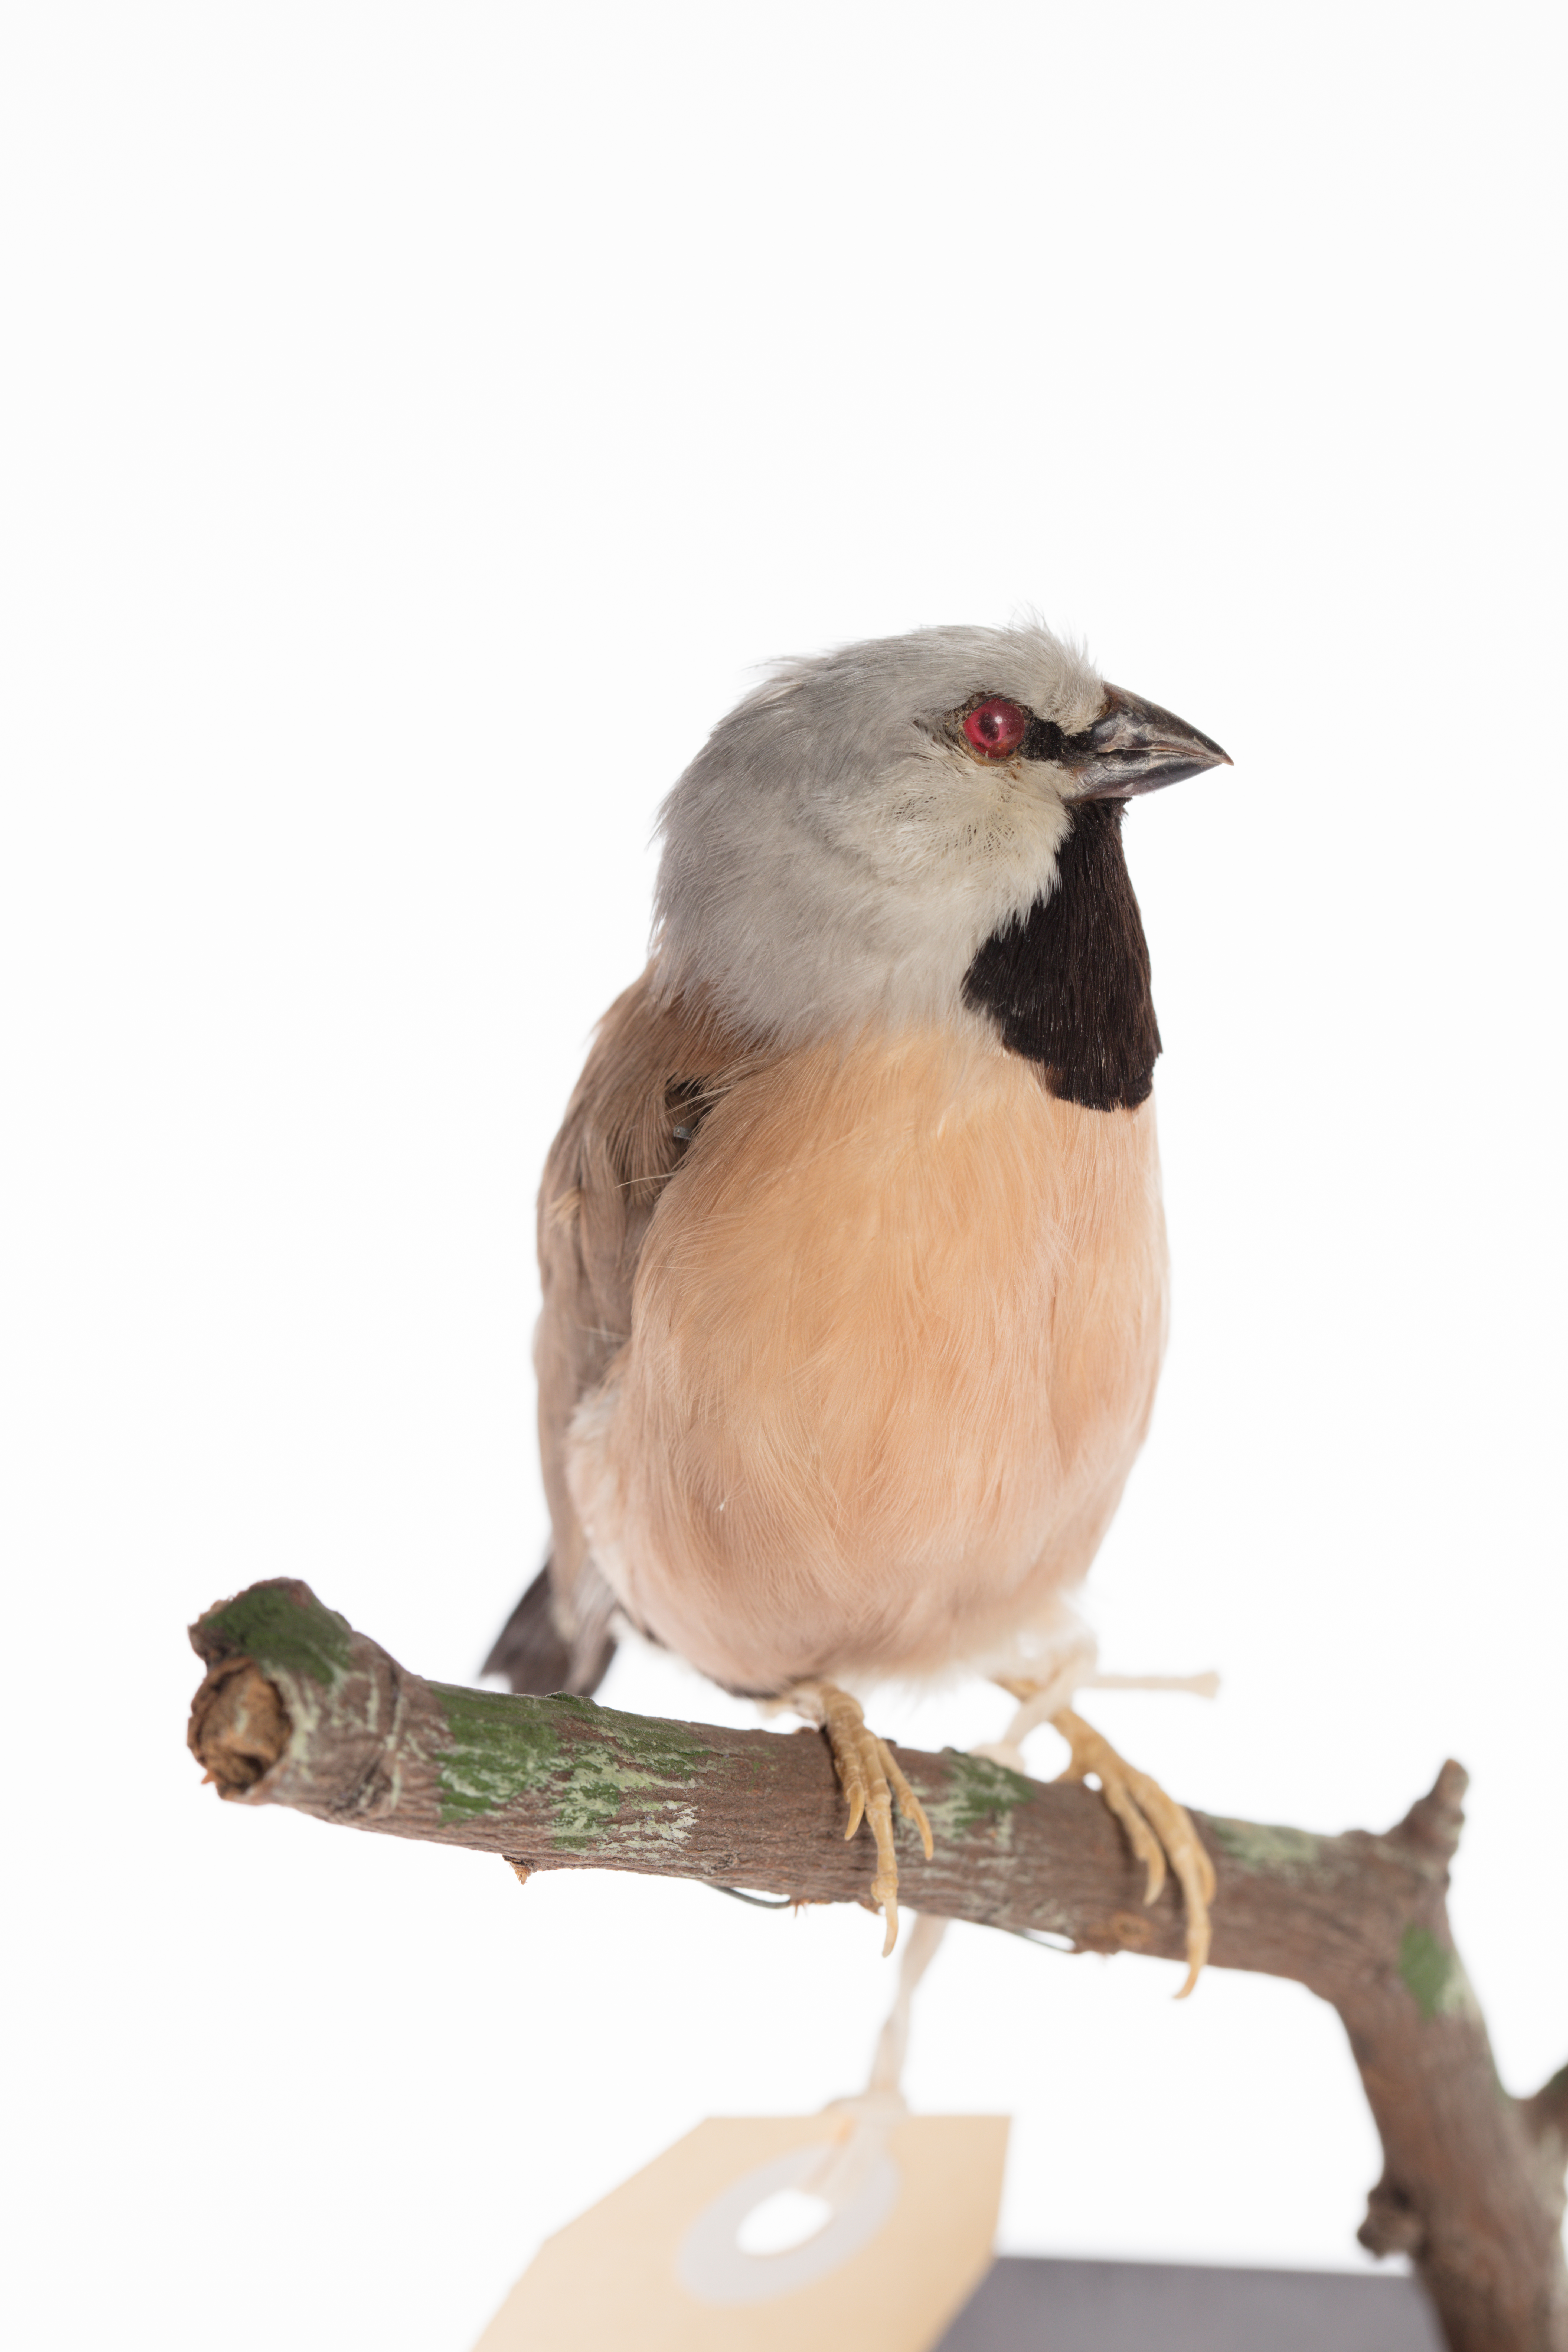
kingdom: Animalia
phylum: Chordata
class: Aves
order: Passeriformes
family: Estrildidae
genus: Poephila
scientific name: Poephila cincta
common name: Black-throated finch
